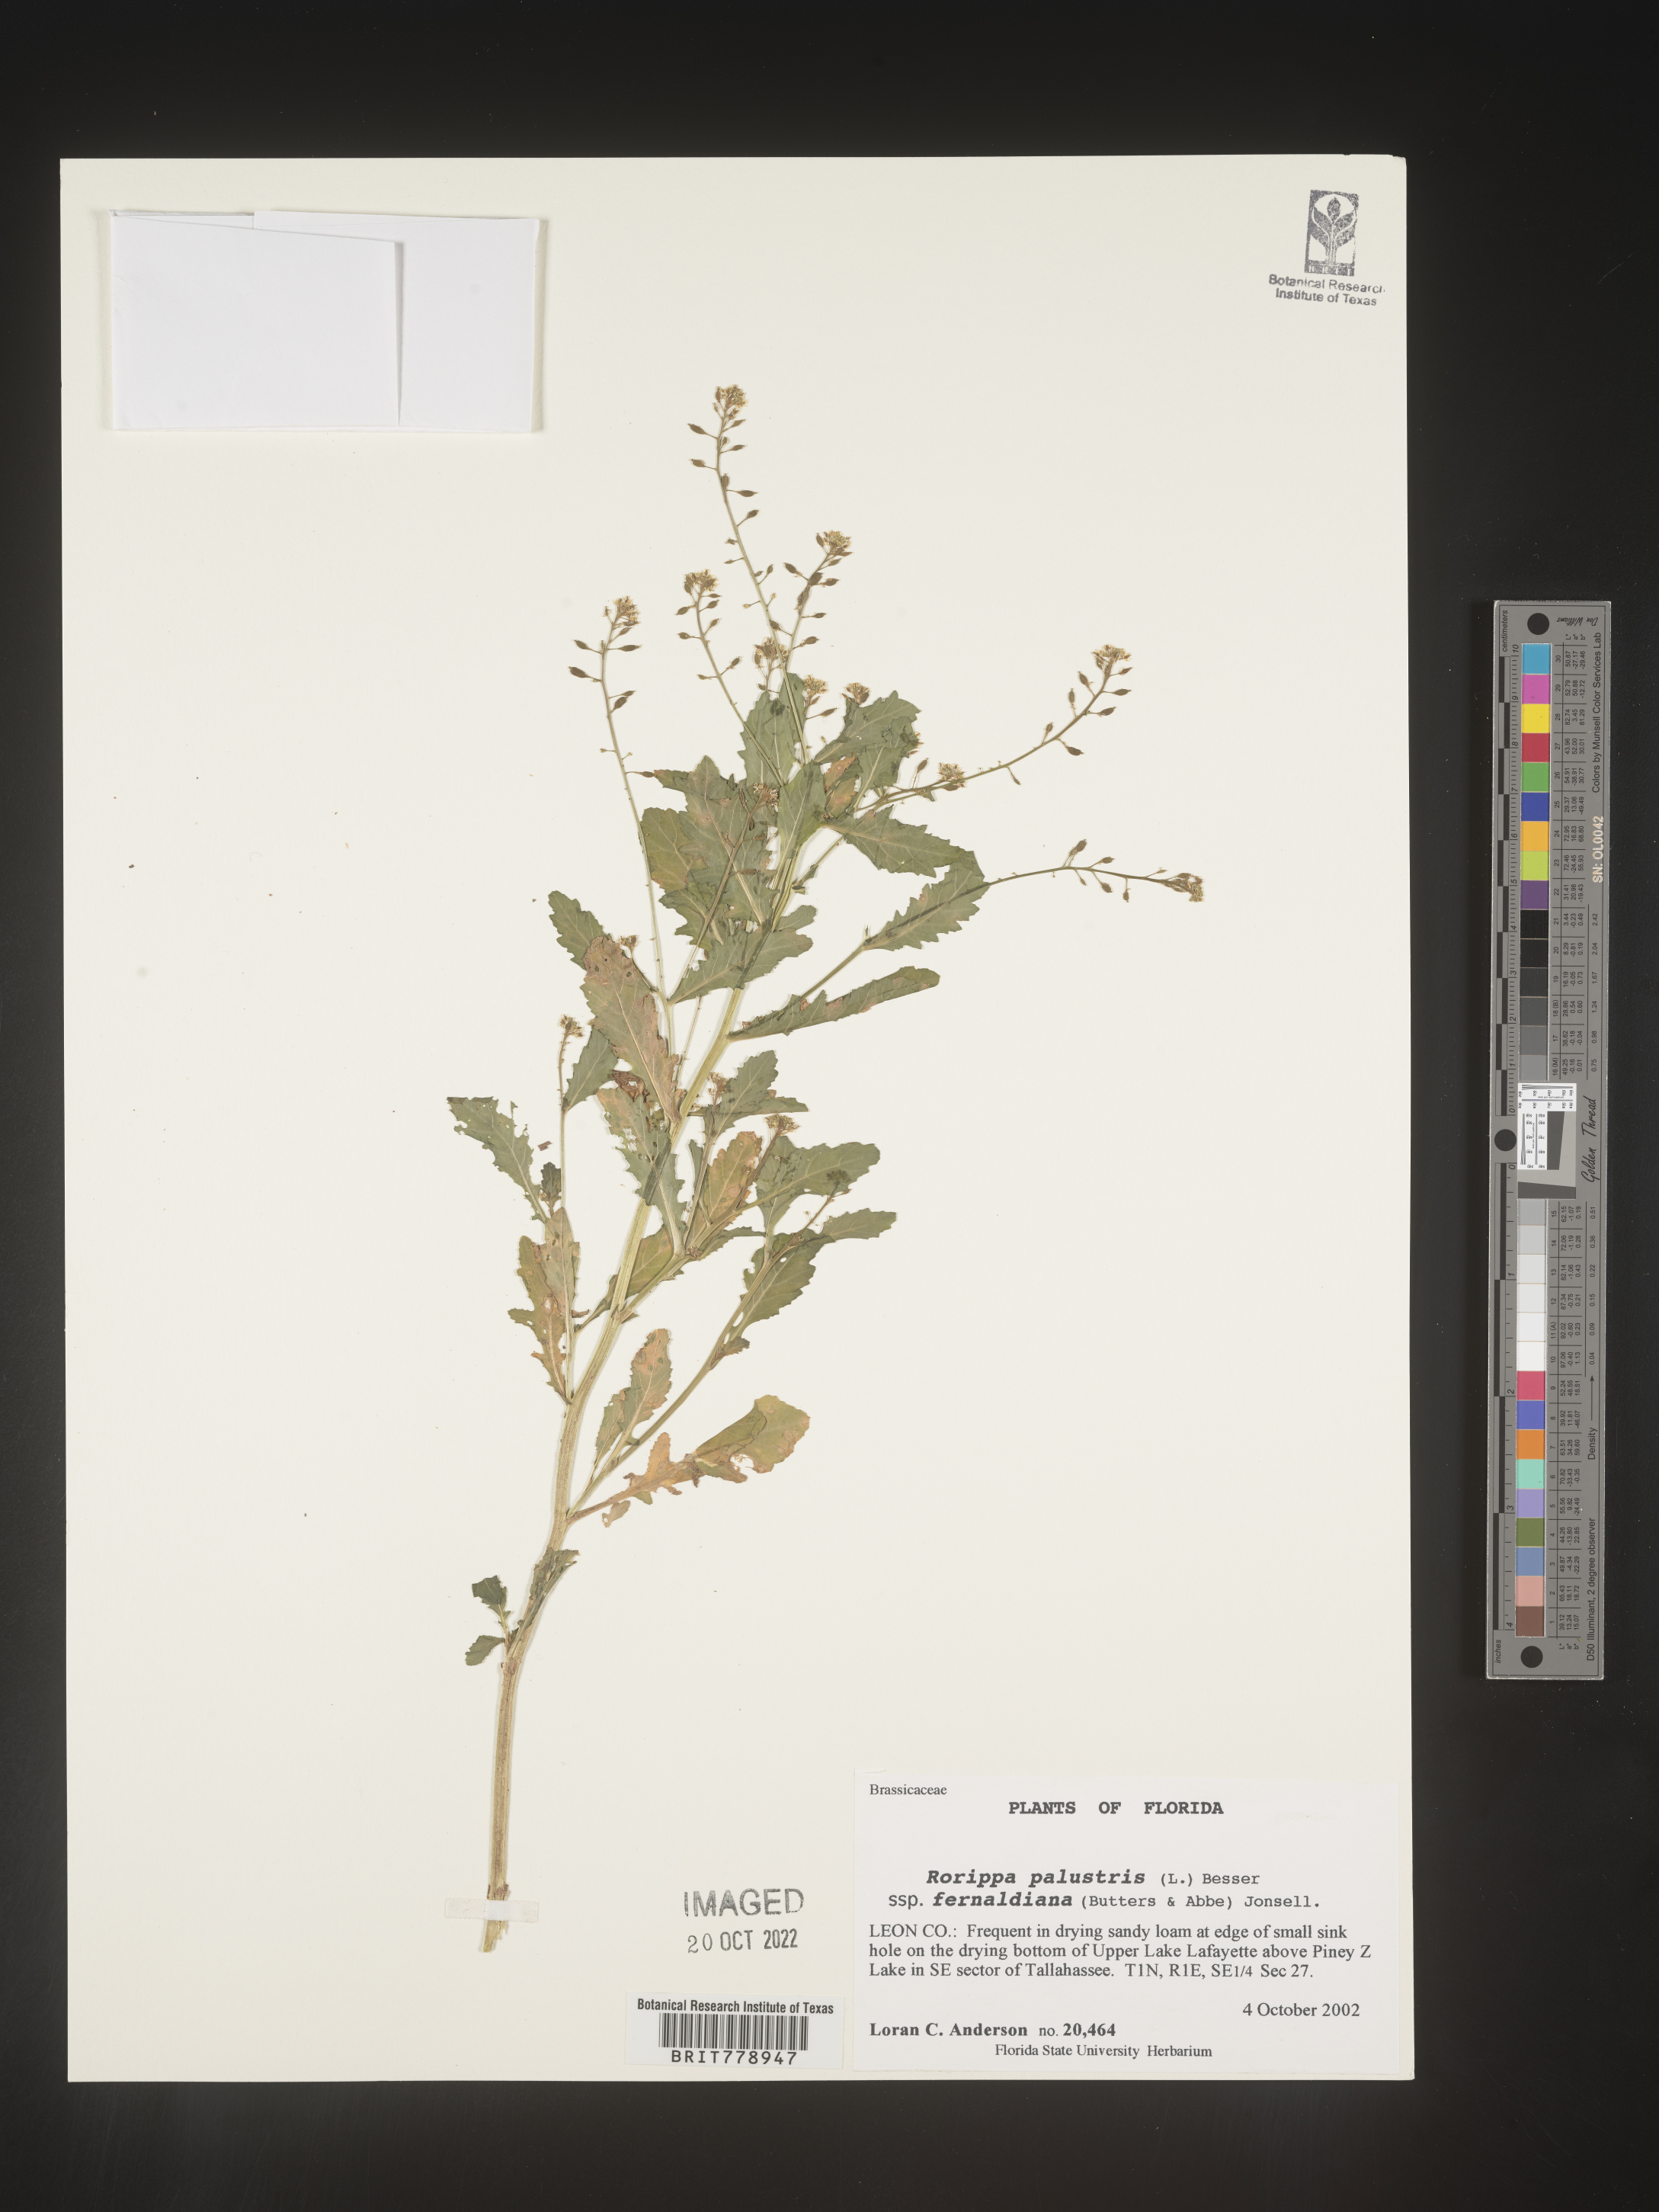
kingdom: Plantae
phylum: Tracheophyta
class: Magnoliopsida
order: Brassicales
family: Brassicaceae
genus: Rorippa
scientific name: Rorippa palustris
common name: Marsh yellow-cress
